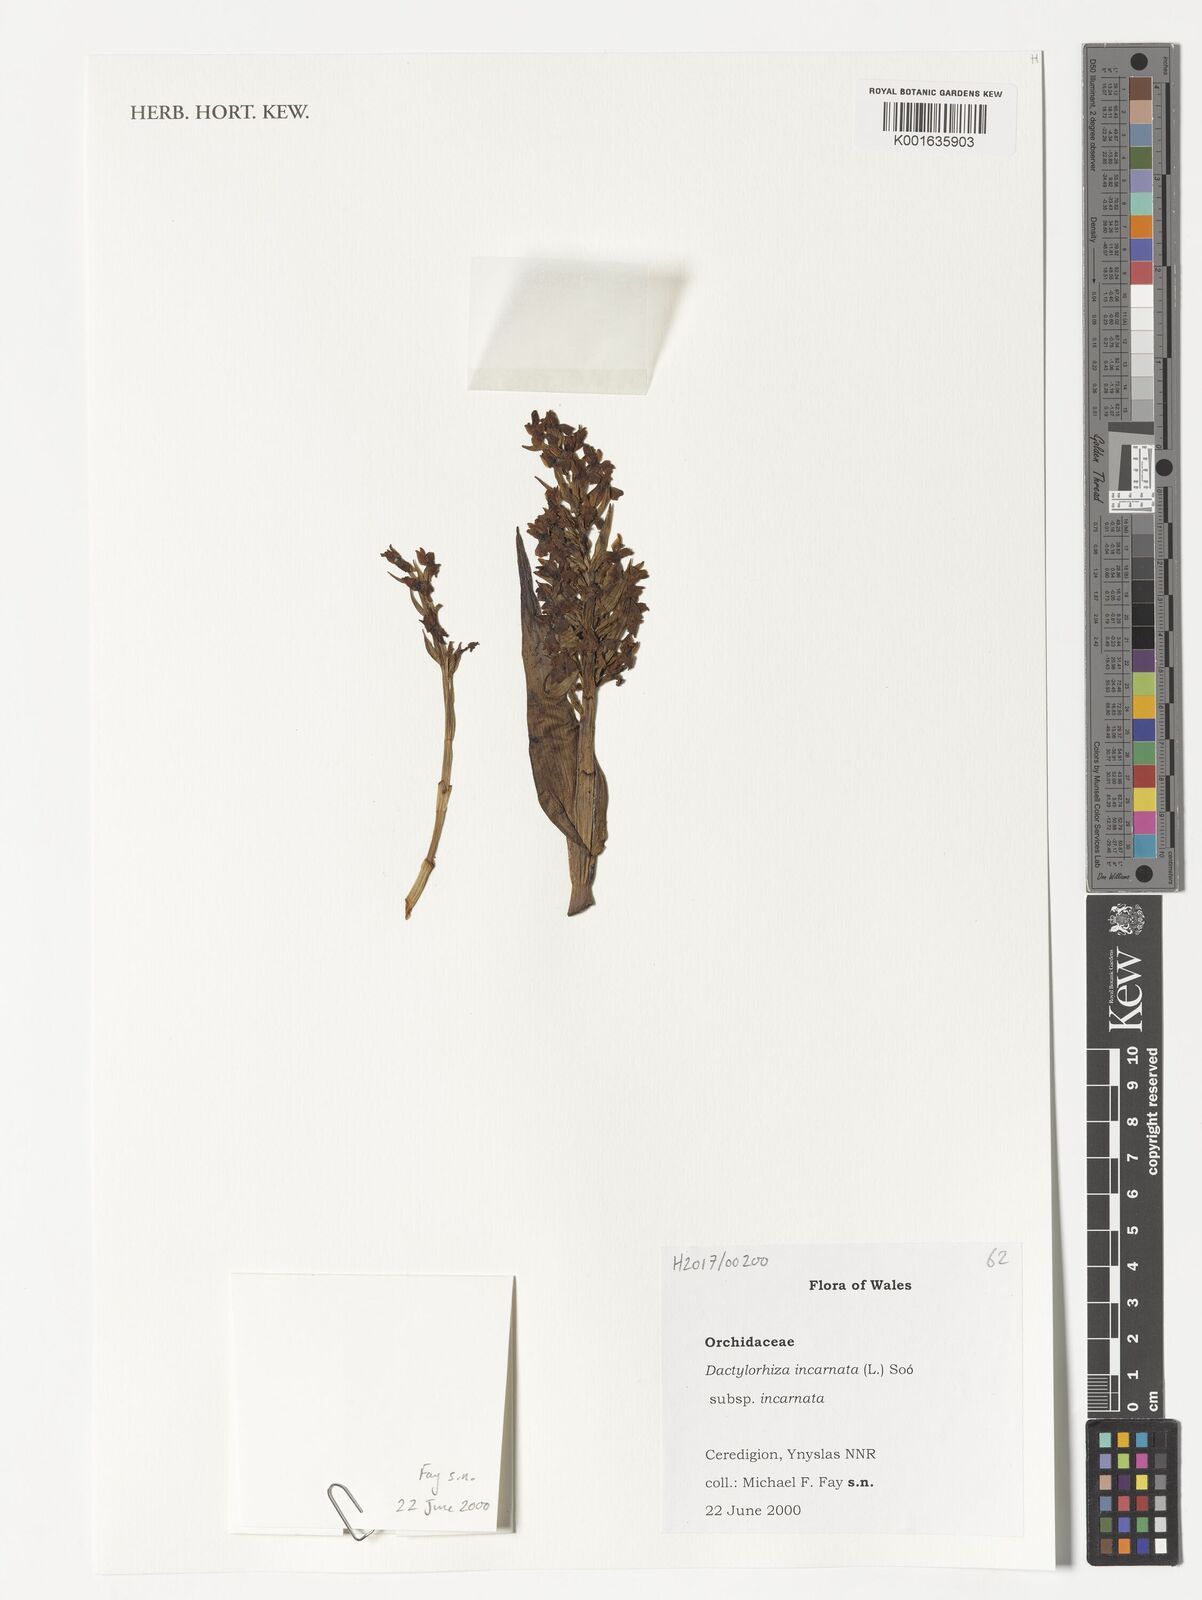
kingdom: Plantae
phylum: Tracheophyta
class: Liliopsida
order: Asparagales
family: Orchidaceae
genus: Dactylorhiza
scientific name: Dactylorhiza incarnata
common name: Early marsh-orchid
